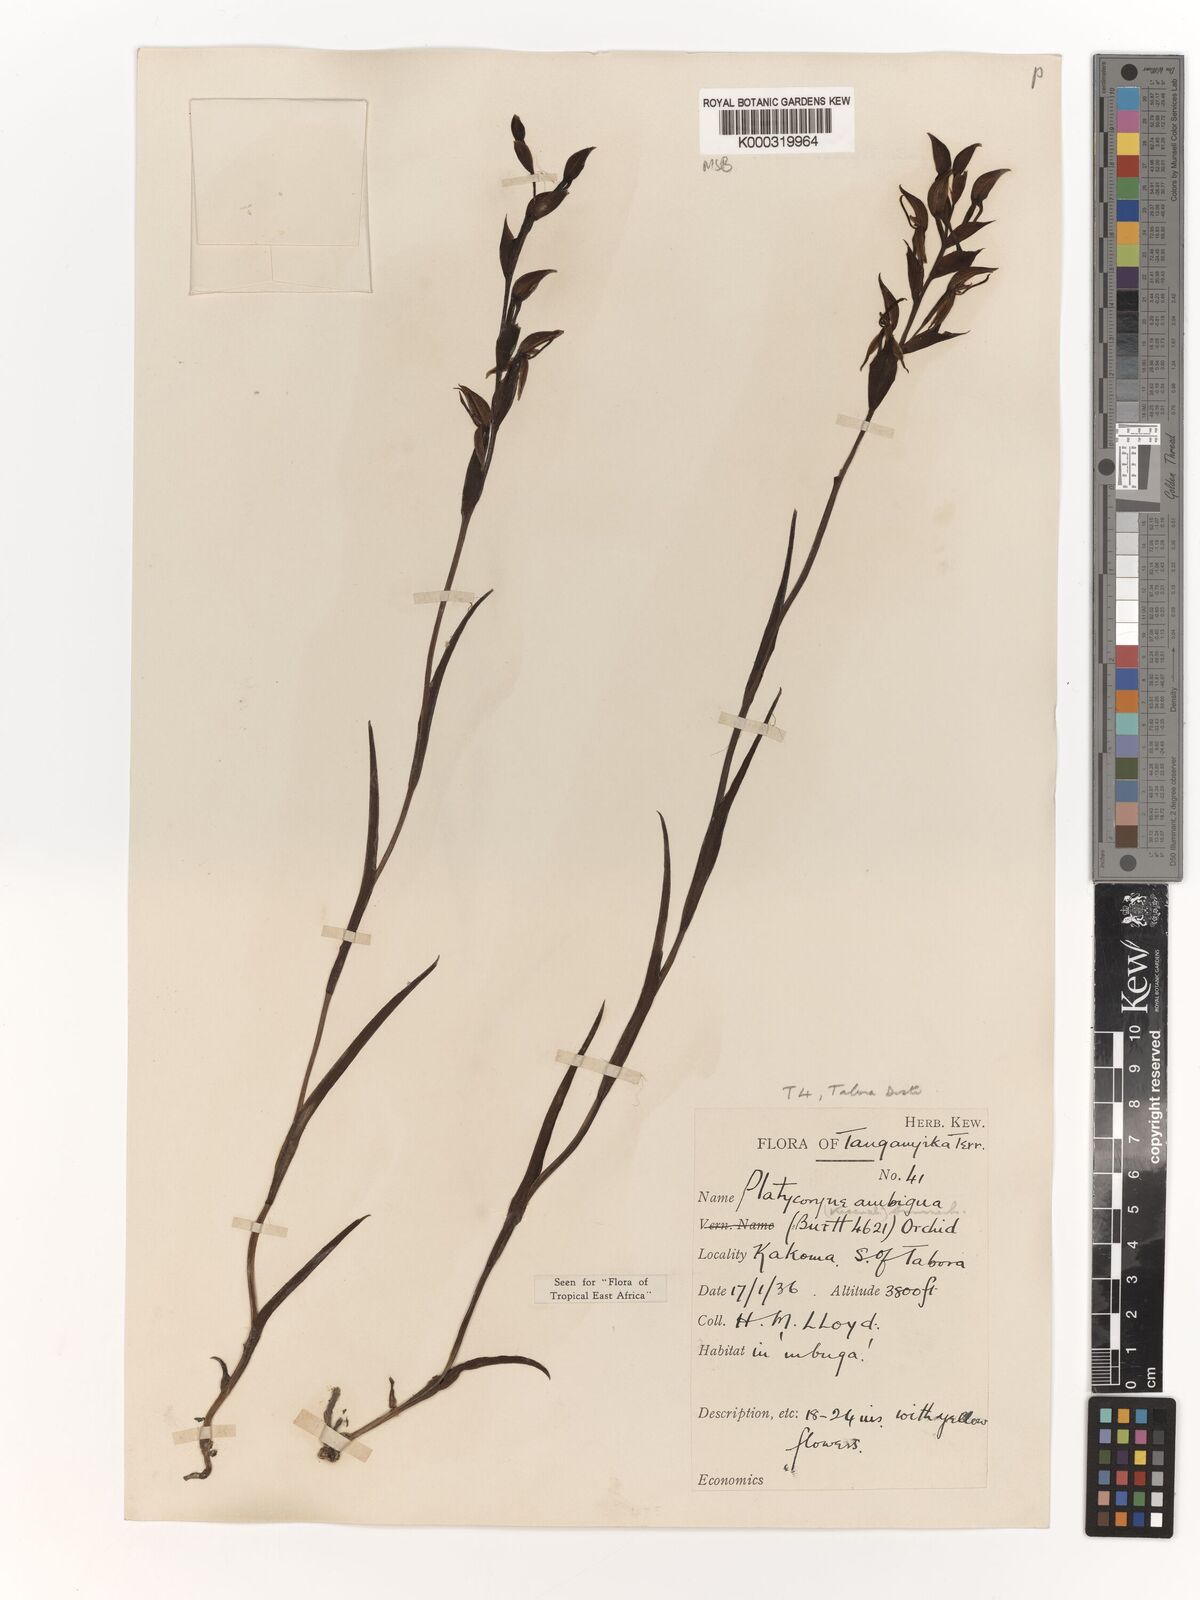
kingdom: Plantae
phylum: Tracheophyta
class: Liliopsida
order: Asparagales
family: Orchidaceae
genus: Platycoryne
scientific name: Platycoryne ambigua
